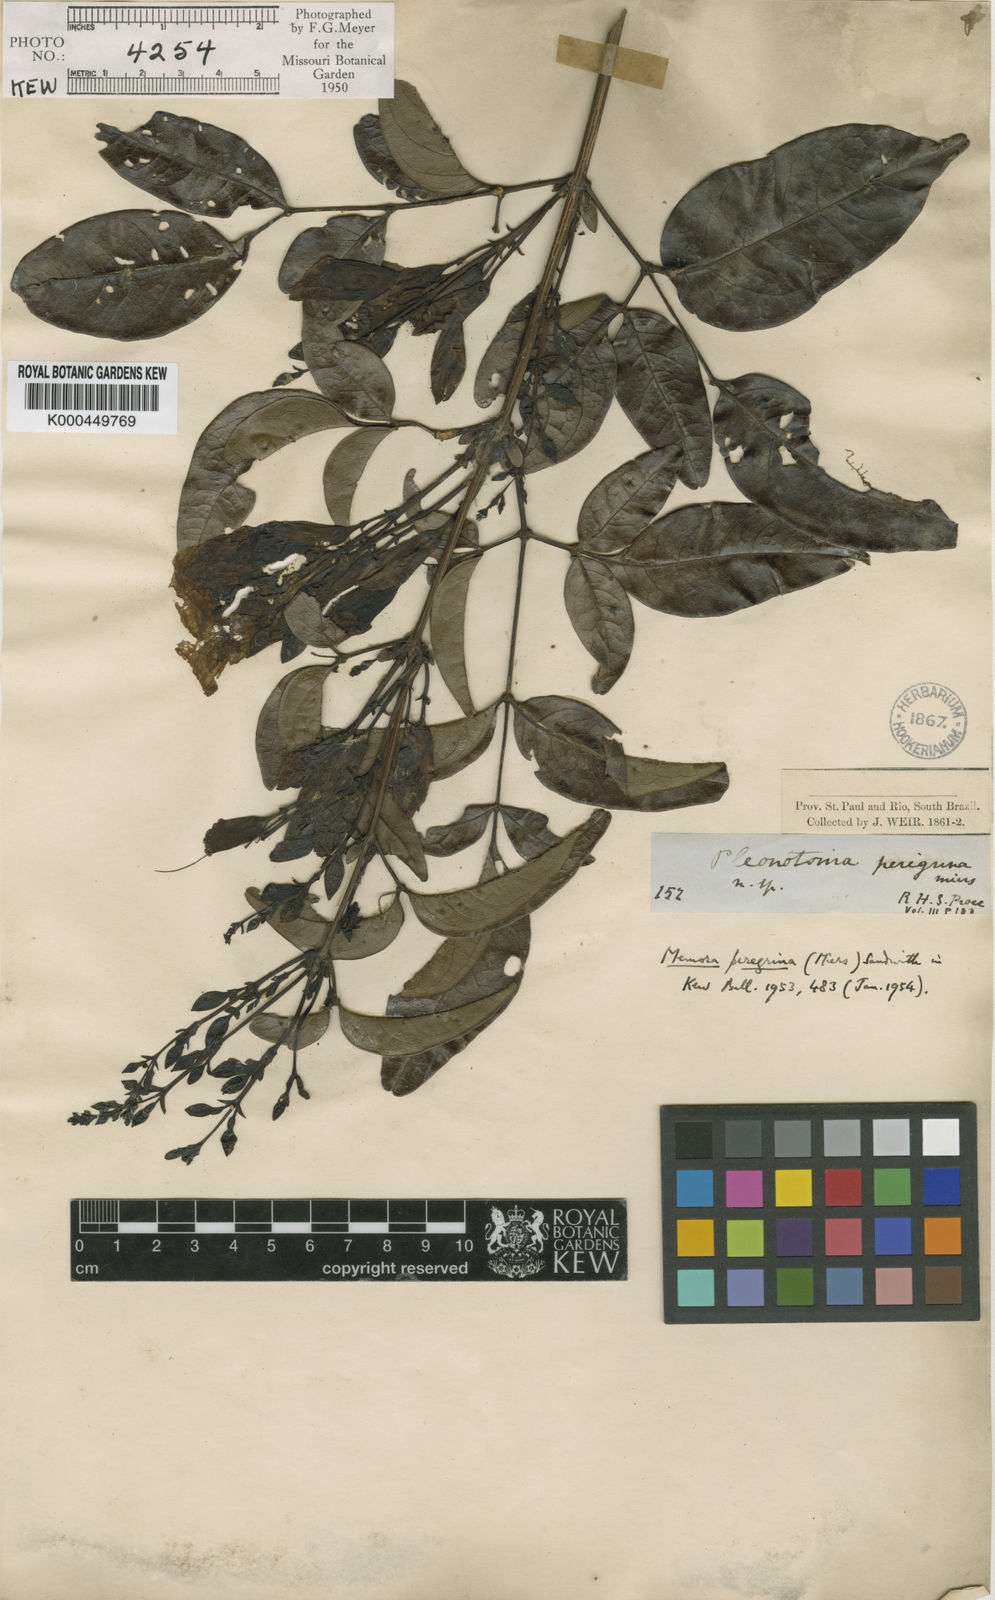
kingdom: Plantae
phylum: Tracheophyta
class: Magnoliopsida
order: Lamiales
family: Bignoniaceae
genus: Adenocalymma
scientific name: Adenocalymma peregrinum
